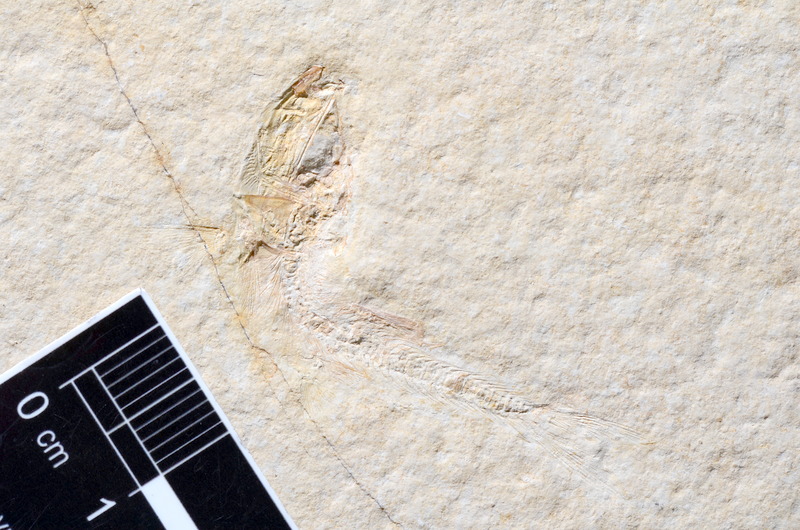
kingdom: Animalia
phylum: Chordata
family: Ascalaboidae
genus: Tharsis
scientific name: Tharsis dubius
